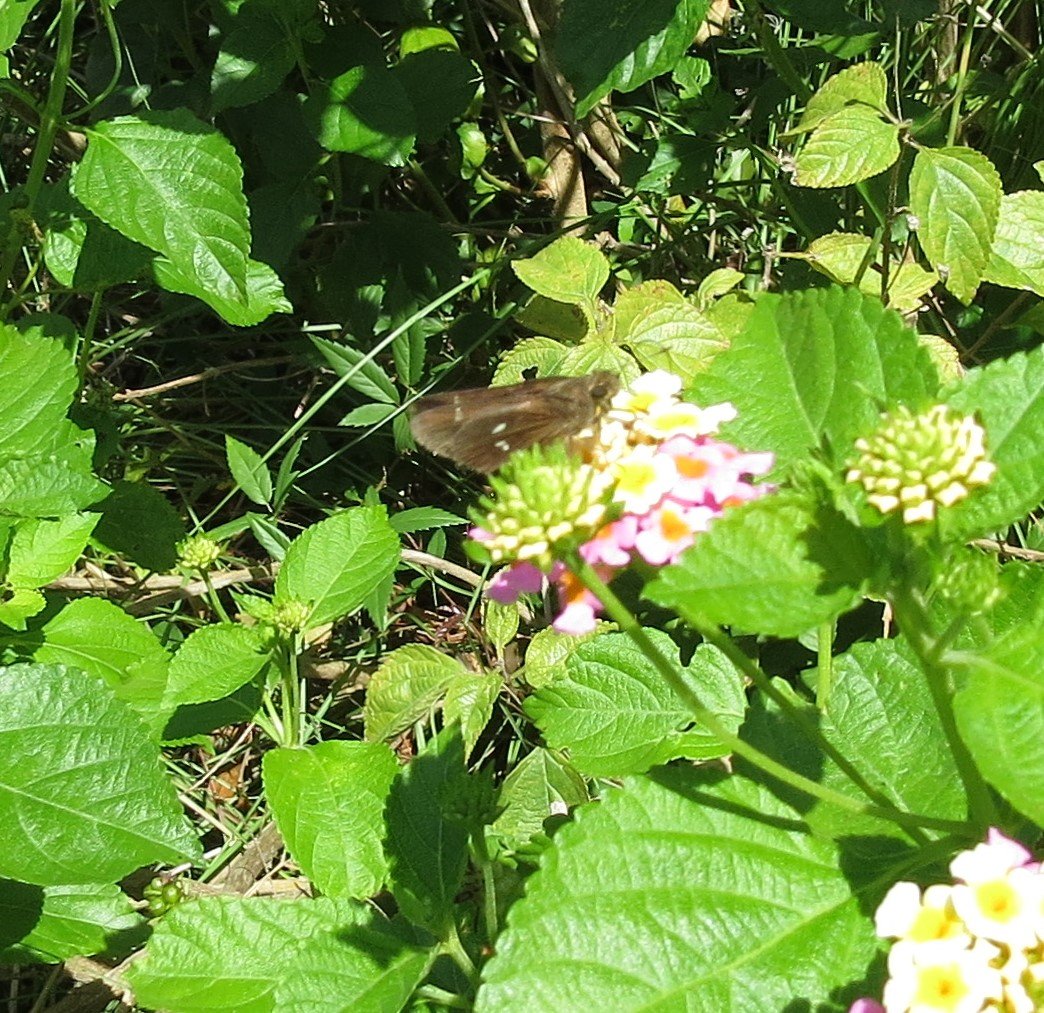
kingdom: Animalia
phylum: Arthropoda
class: Insecta
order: Lepidoptera
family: Hesperiidae
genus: Oligoria
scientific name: Oligoria maculata
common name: Twin-spot Skipper
